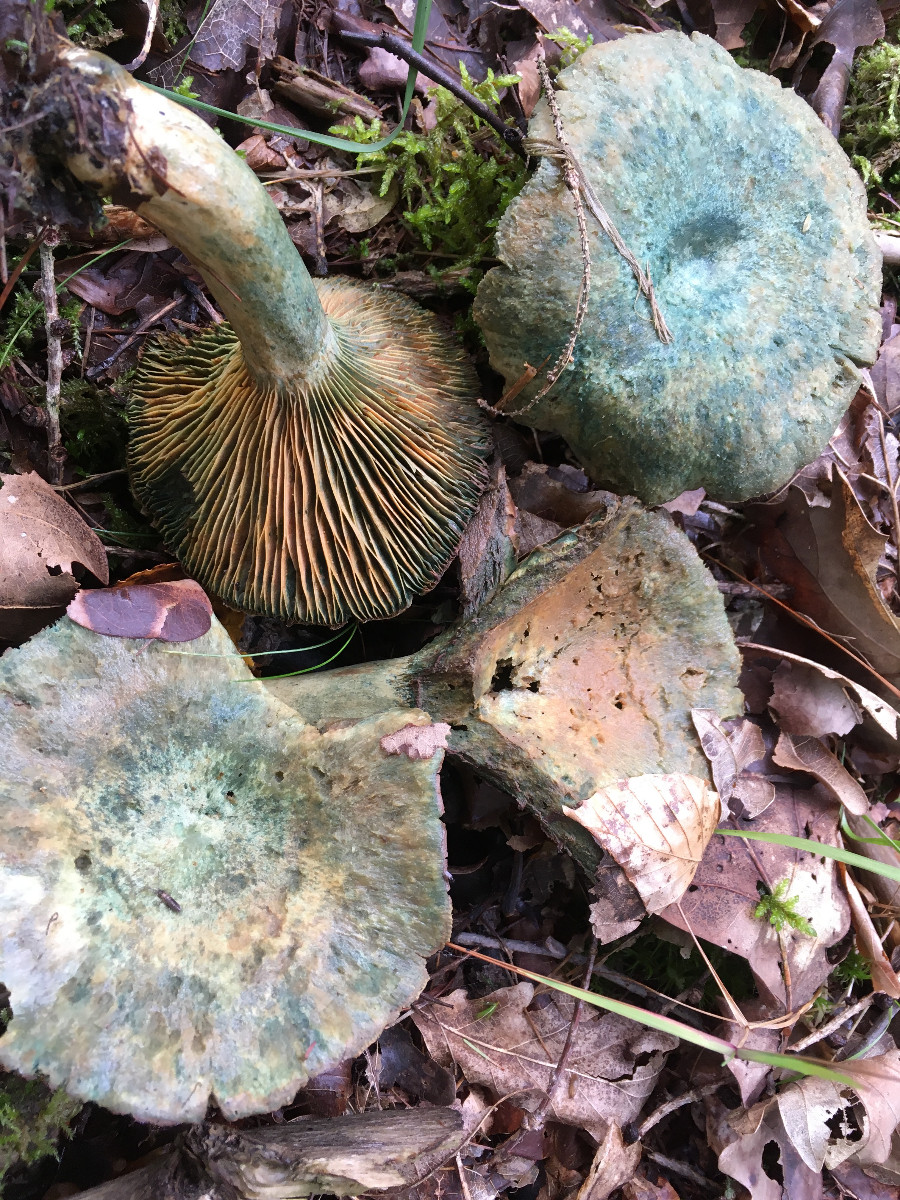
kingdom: Fungi
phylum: Basidiomycota
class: Agaricomycetes
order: Russulales
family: Russulaceae
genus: Lactarius
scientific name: Lactarius
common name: mælkehat
